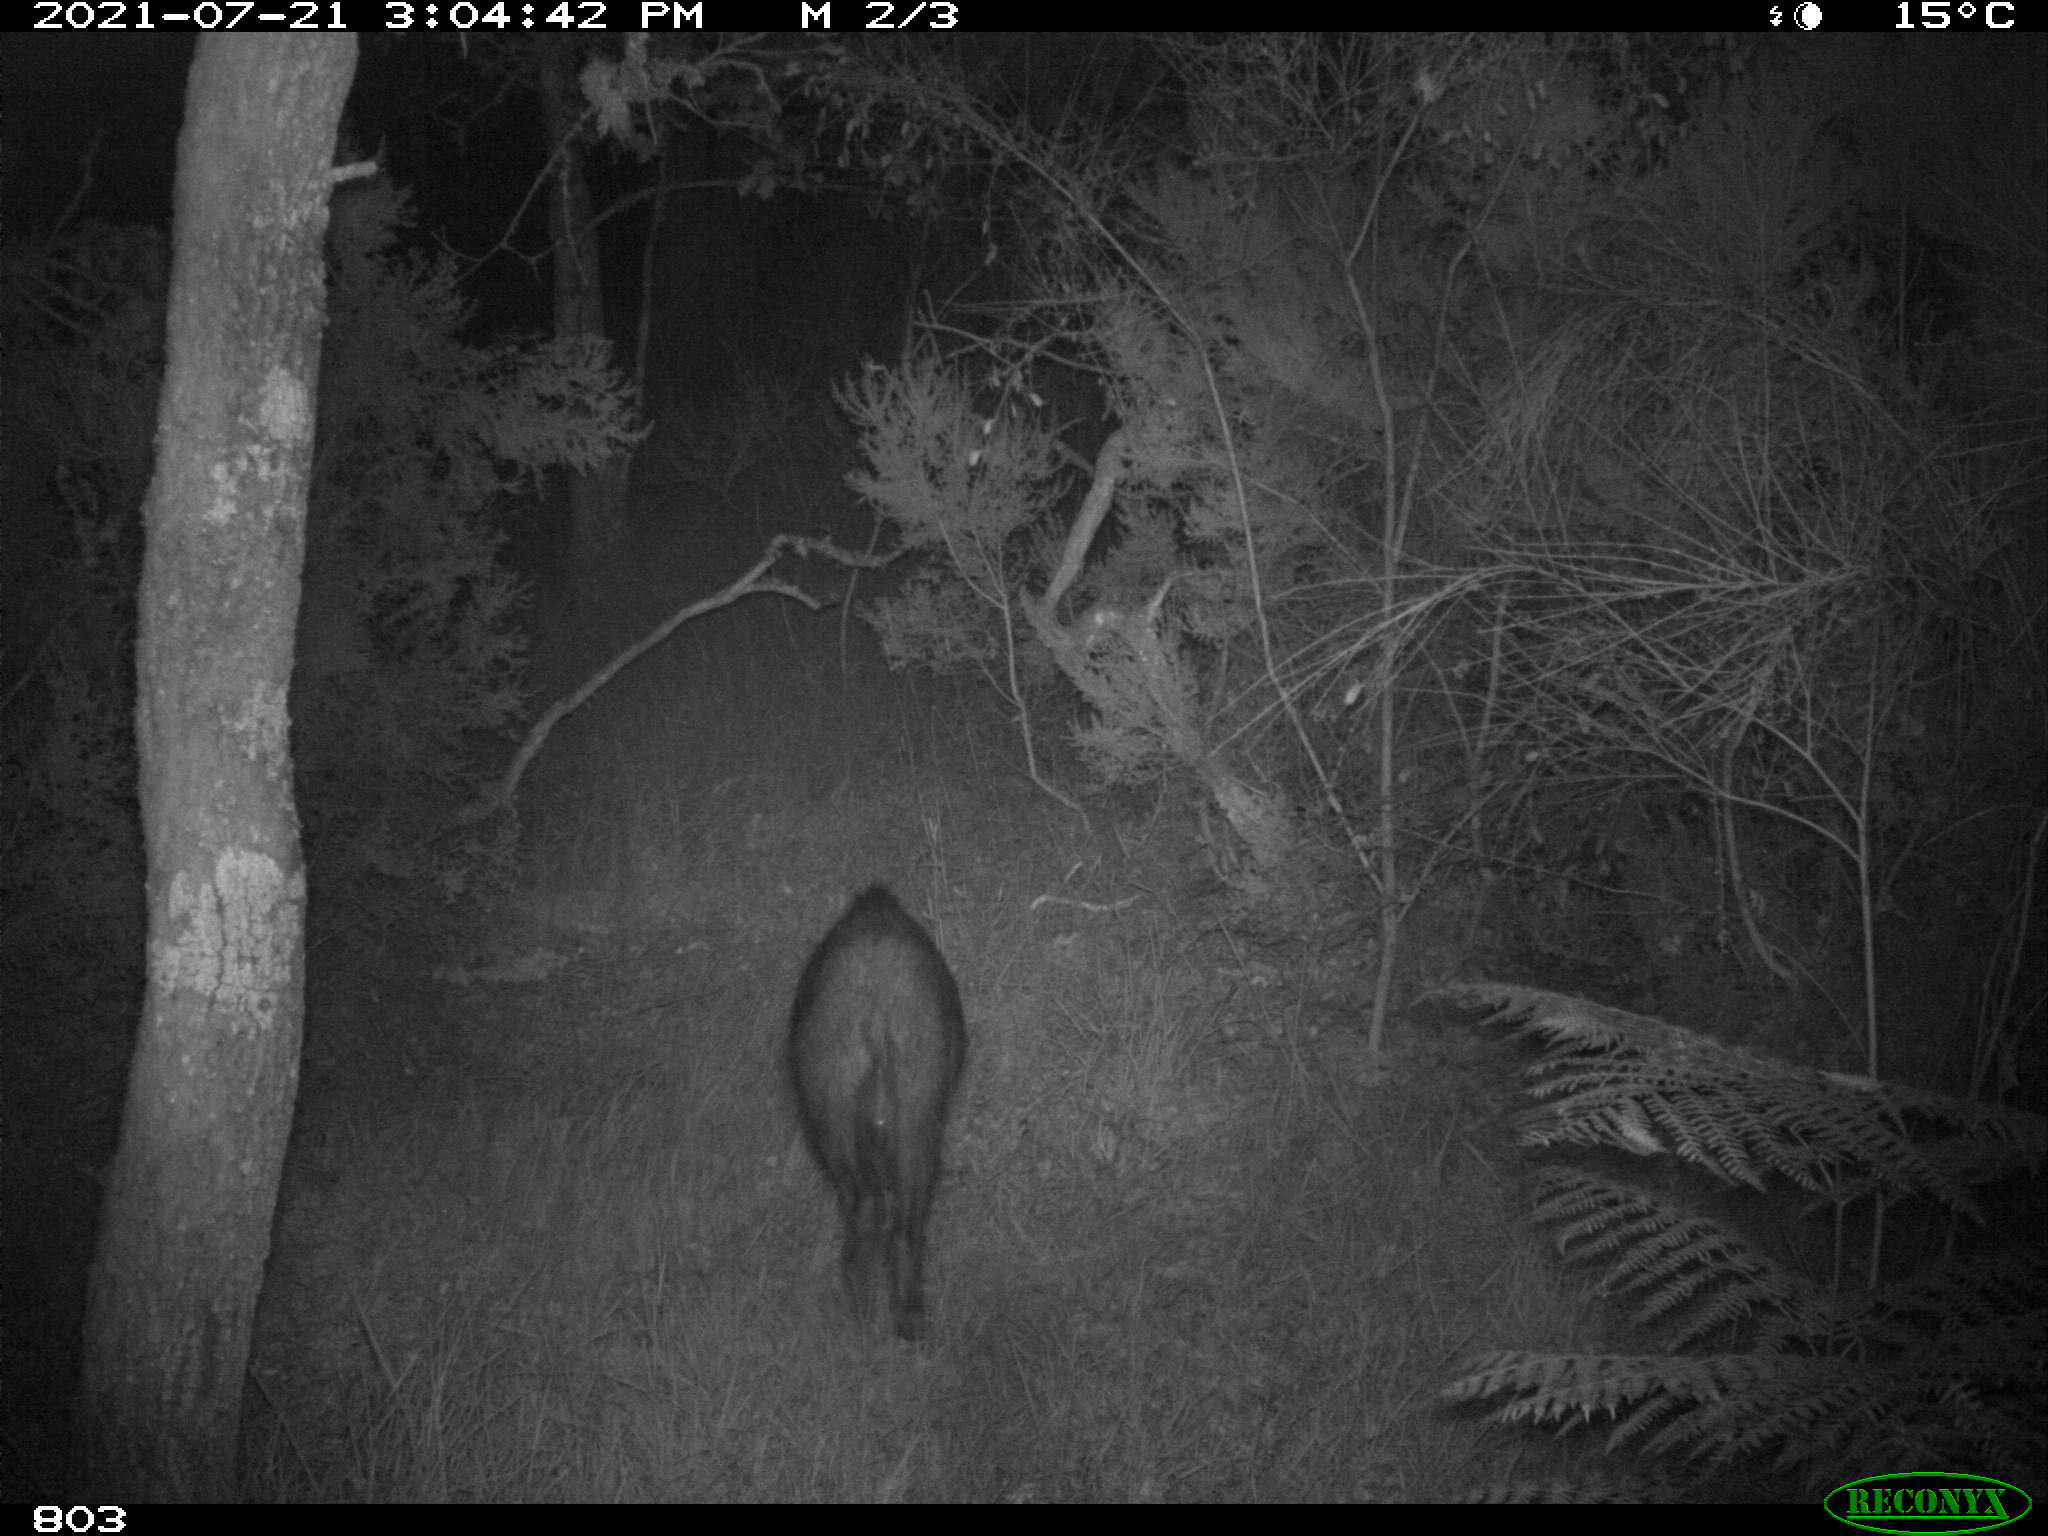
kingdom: Animalia
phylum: Chordata
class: Mammalia
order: Artiodactyla
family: Suidae
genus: Sus
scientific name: Sus scrofa
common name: Wild boar
